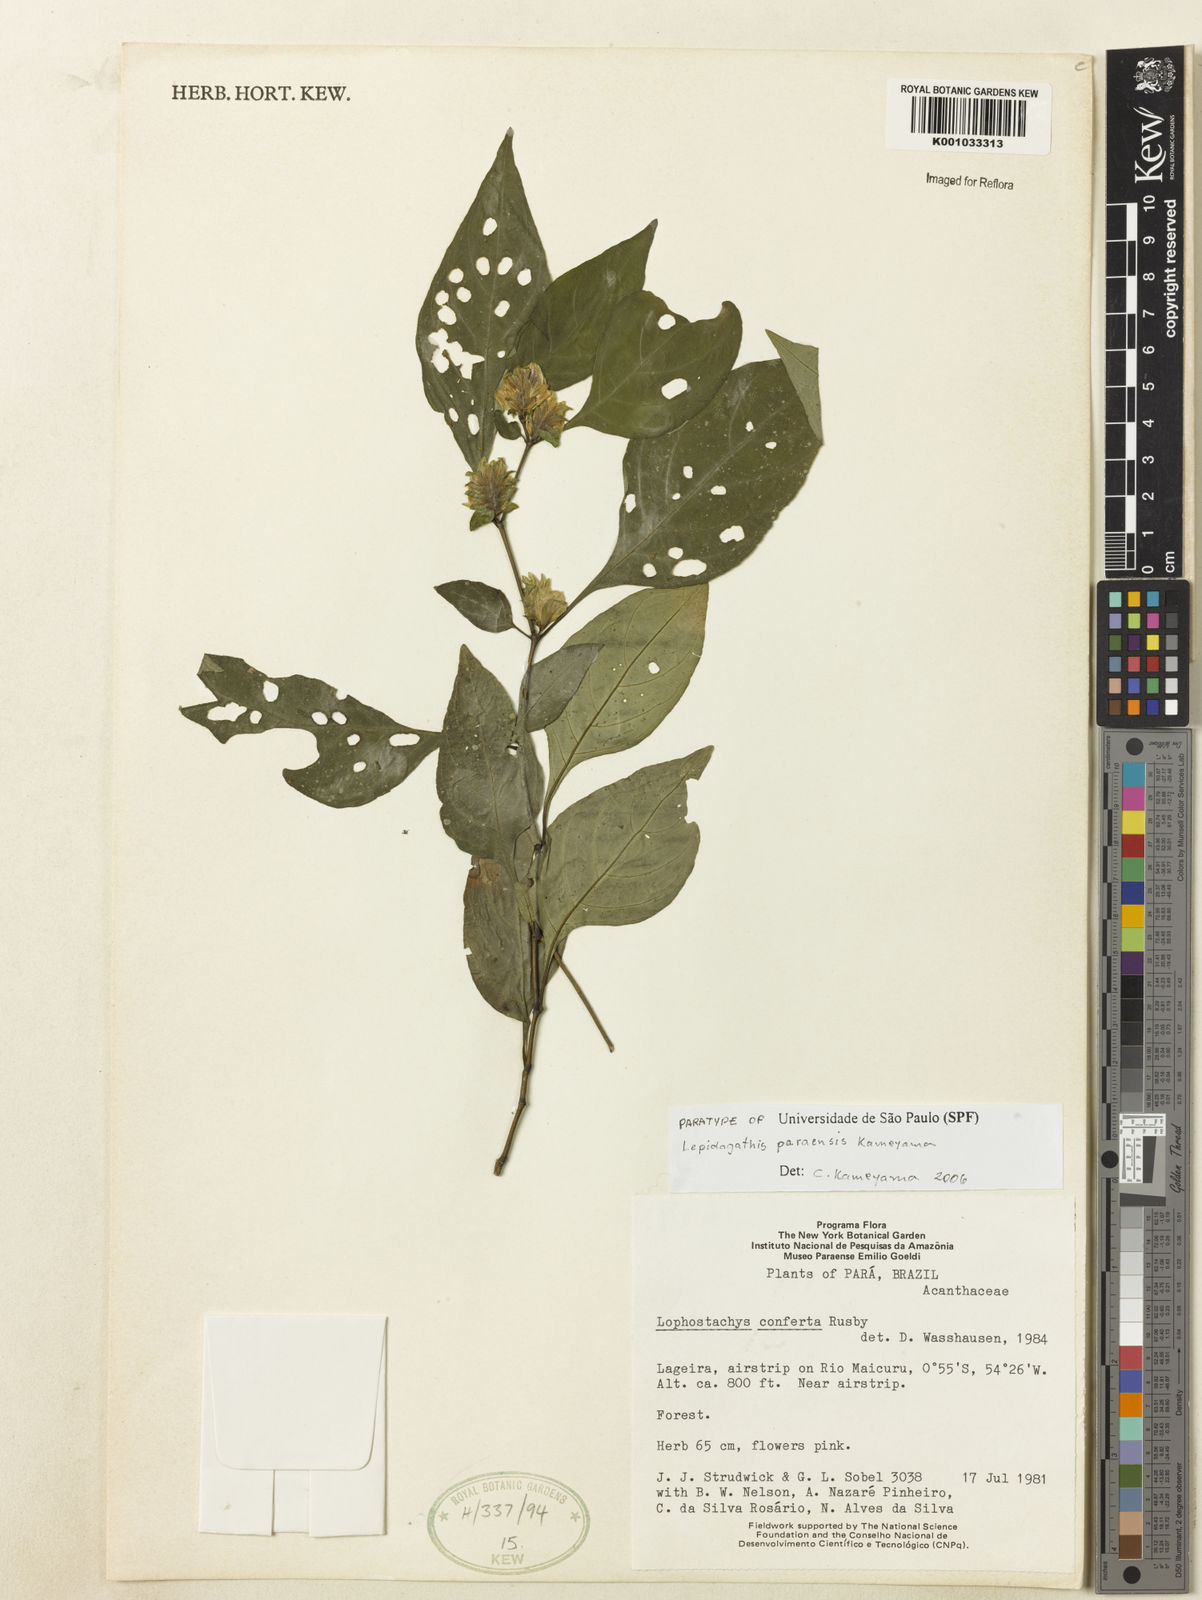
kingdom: Plantae
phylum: Tracheophyta
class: Magnoliopsida
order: Lamiales
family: Acanthaceae
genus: Lepidagathis
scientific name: Lepidagathis paraensis
